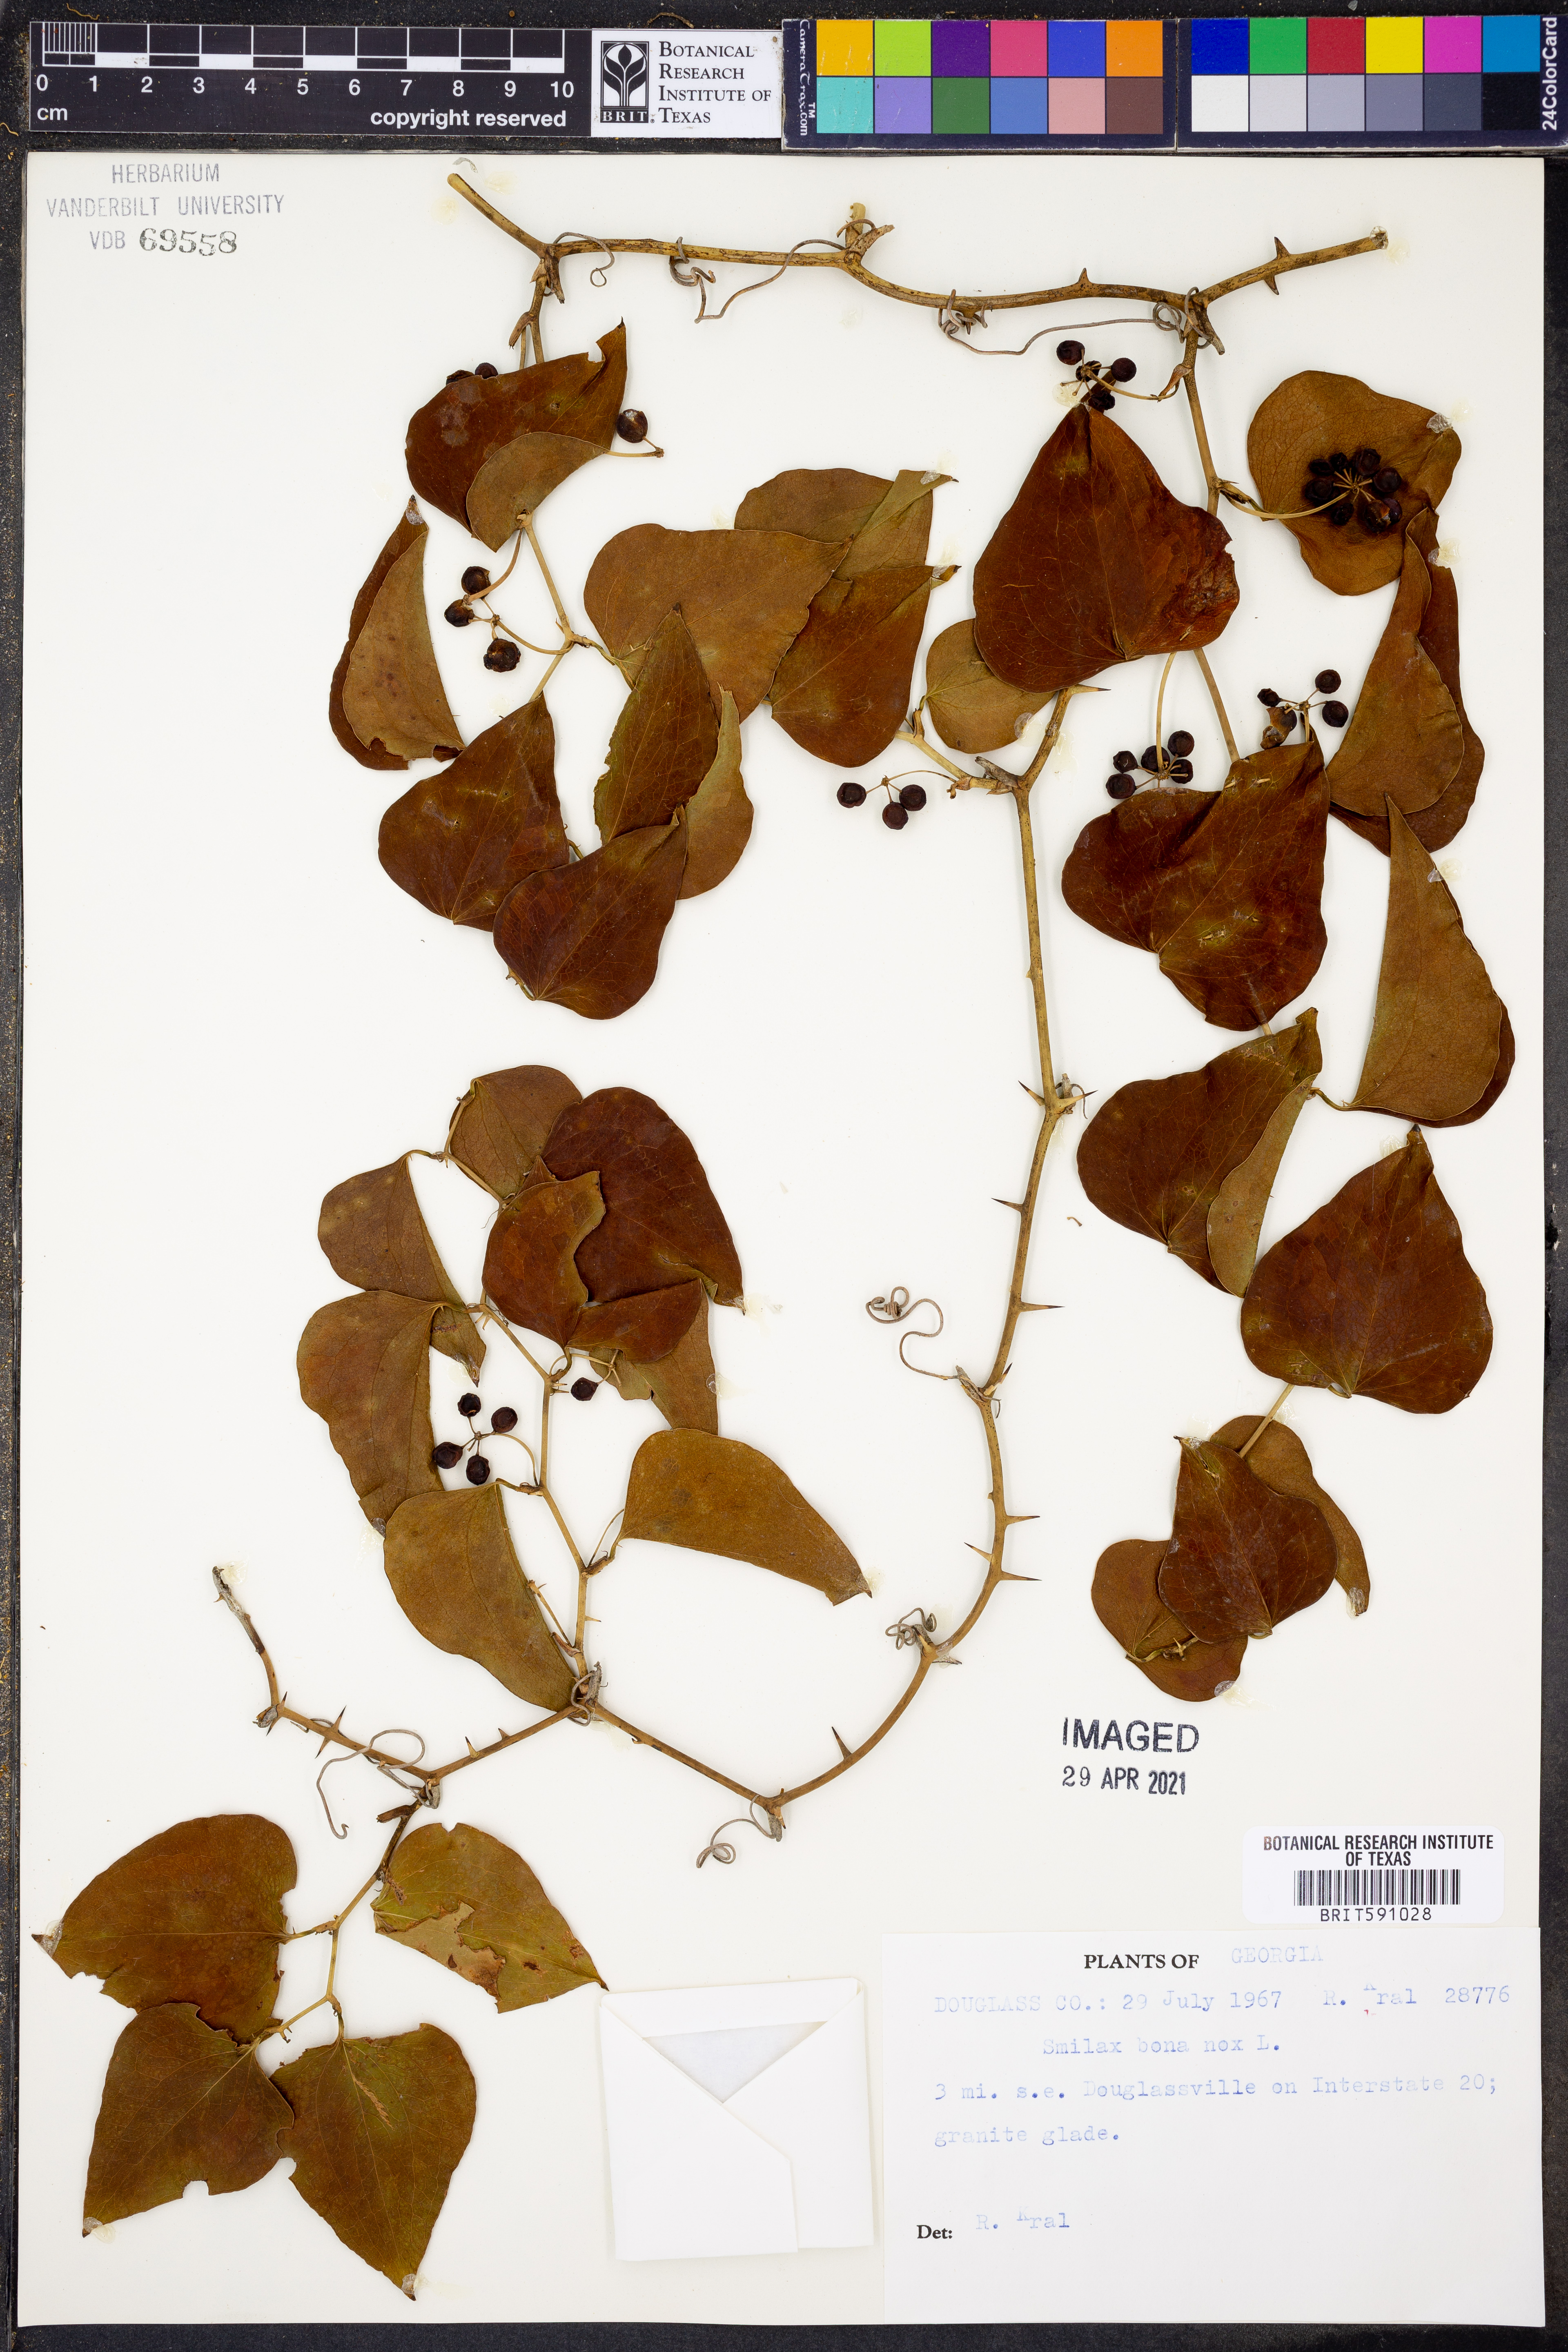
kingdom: Plantae
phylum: Tracheophyta
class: Liliopsida
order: Liliales
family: Smilacaceae
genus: Smilax
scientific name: Smilax bona-nox
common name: Catbrier
